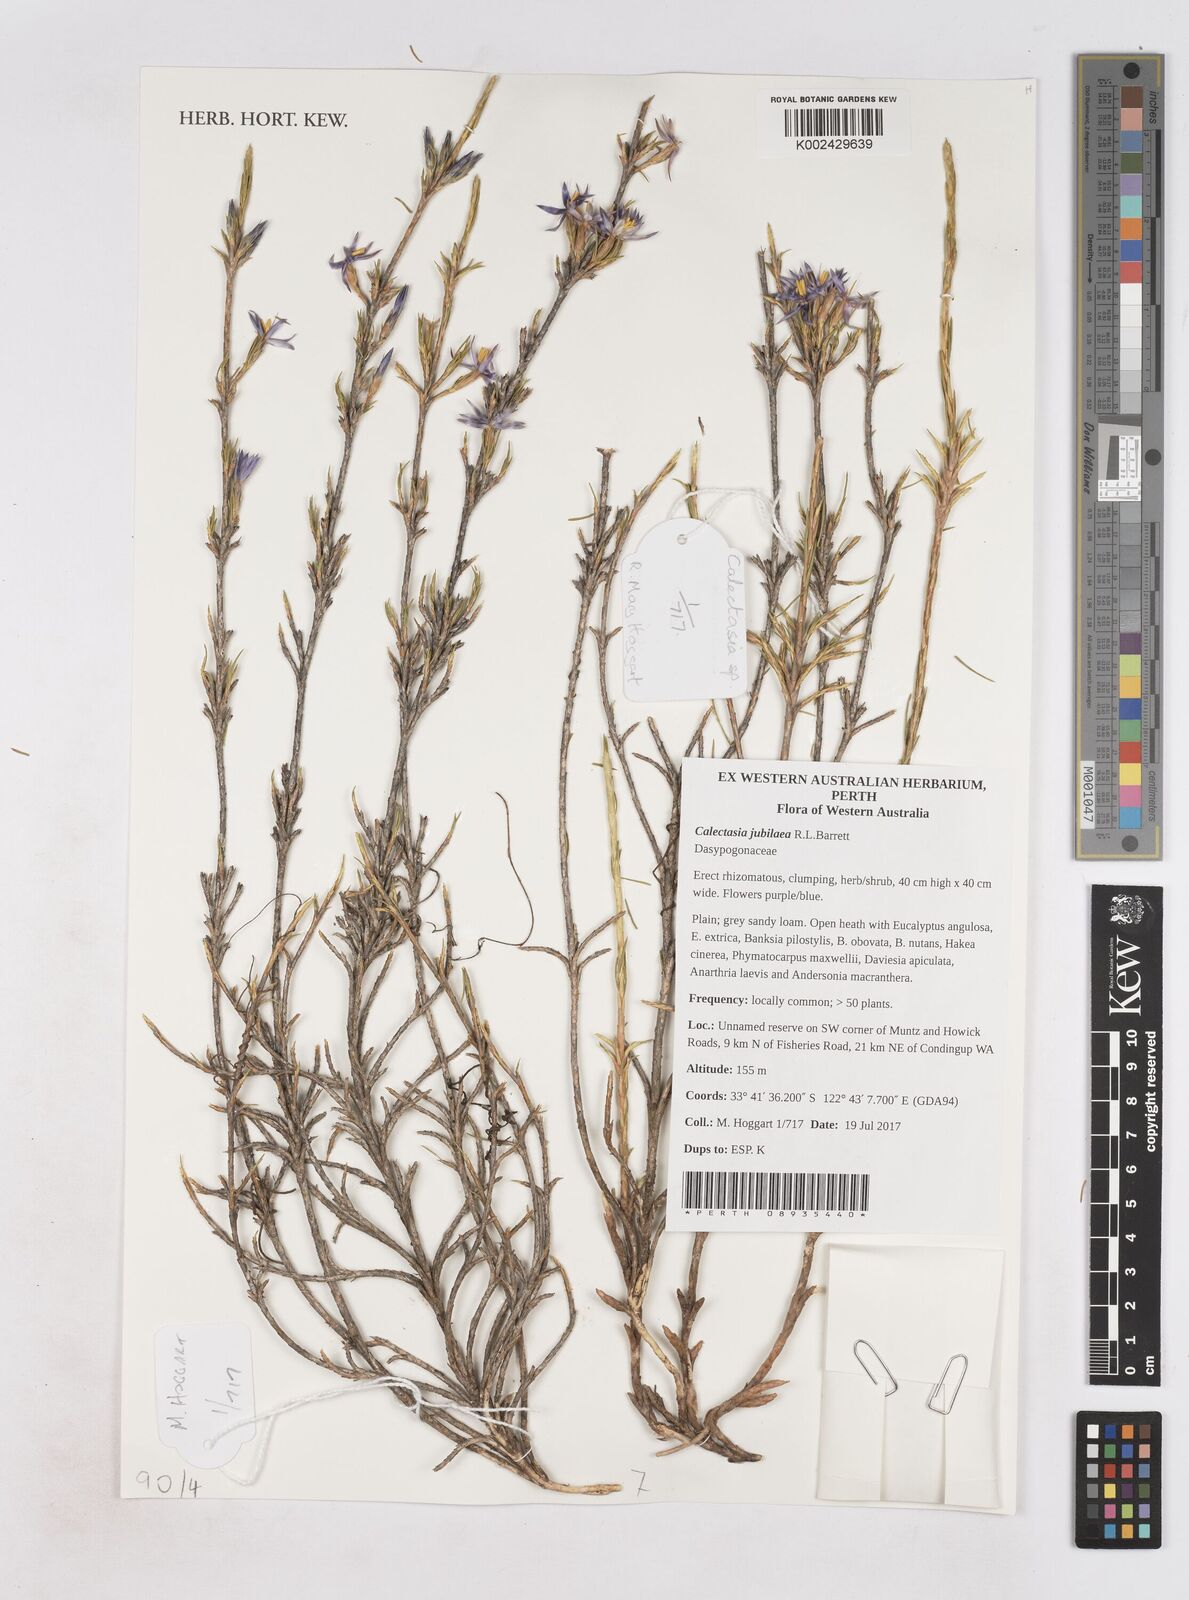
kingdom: Plantae
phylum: Tracheophyta
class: Liliopsida
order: Arecales
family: Dasypogonaceae
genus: Calectasia
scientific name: Calectasia jubilaea
